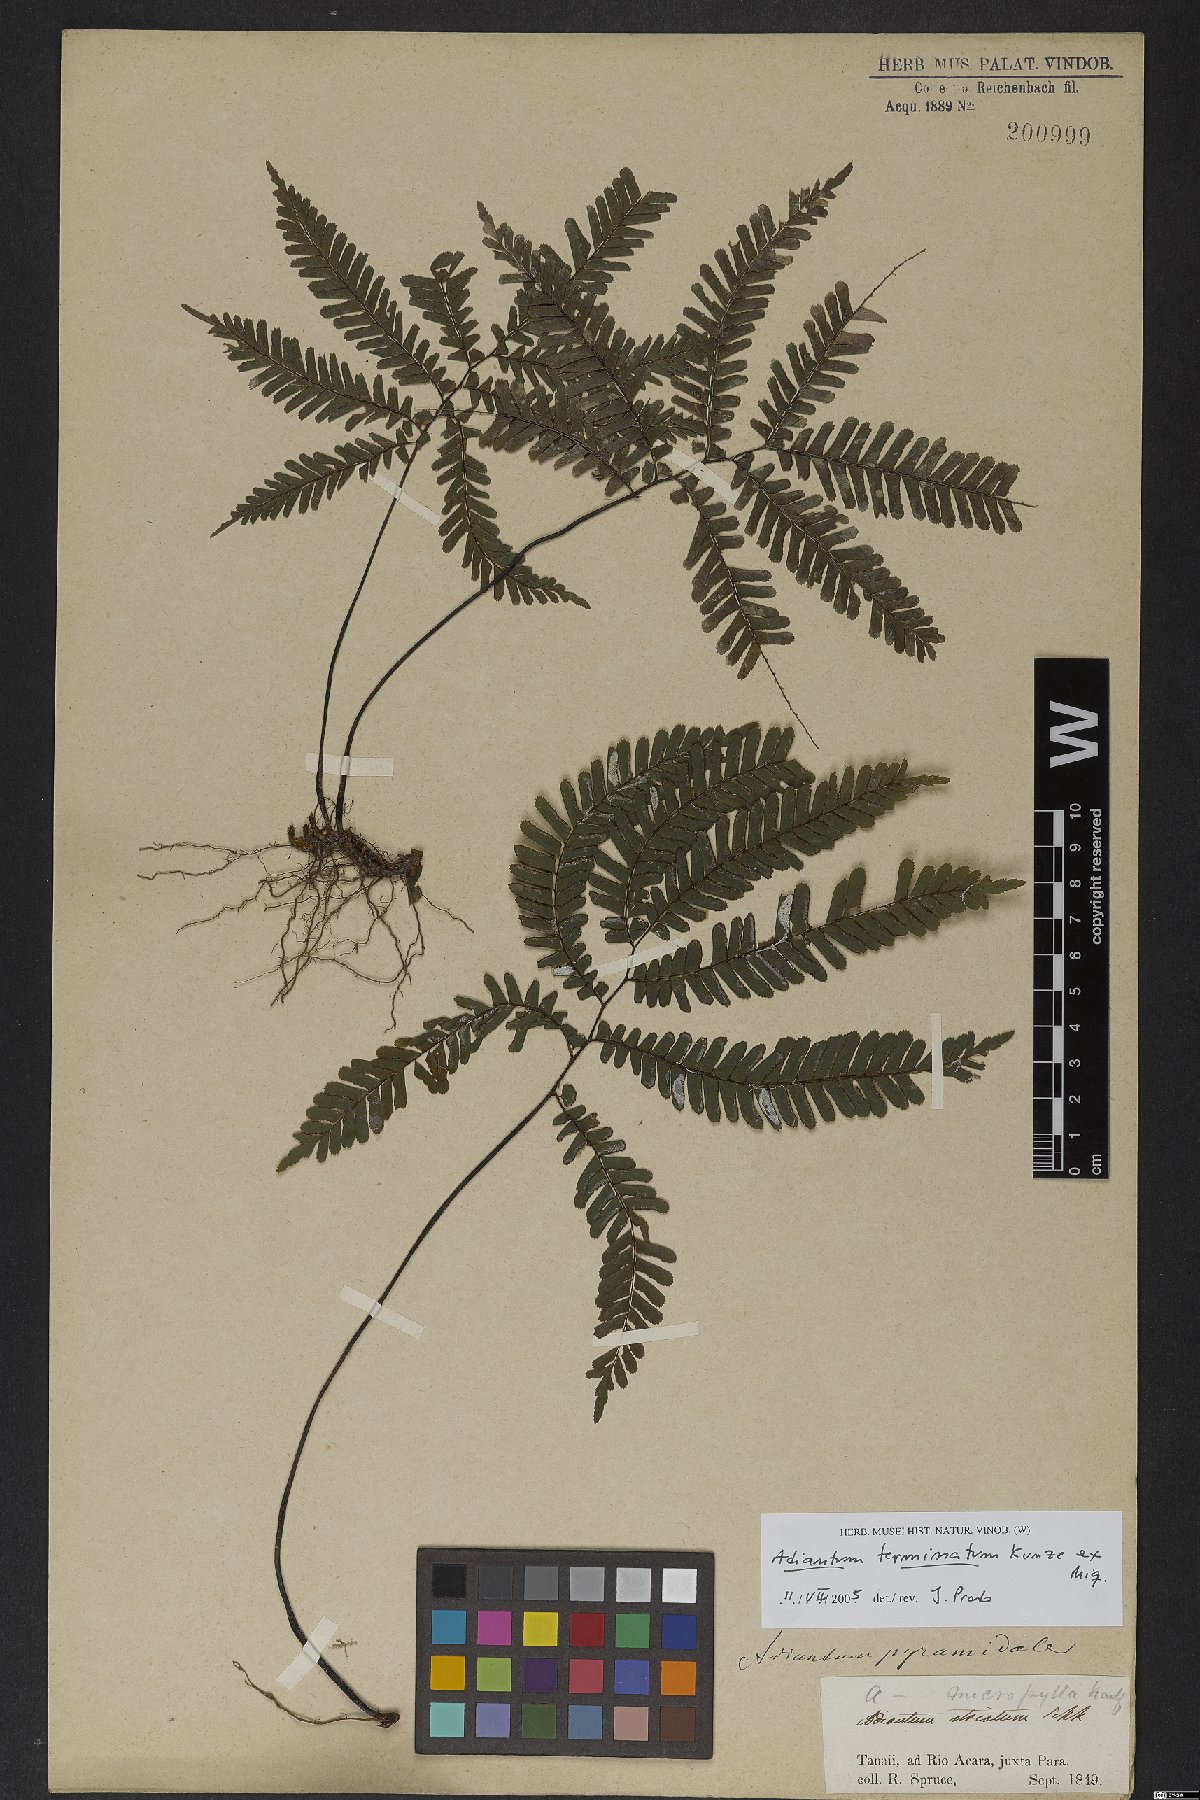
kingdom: Plantae
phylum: Tracheophyta
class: Polypodiopsida
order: Polypodiales
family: Pteridaceae
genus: Adiantum
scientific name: Adiantum terminatum
